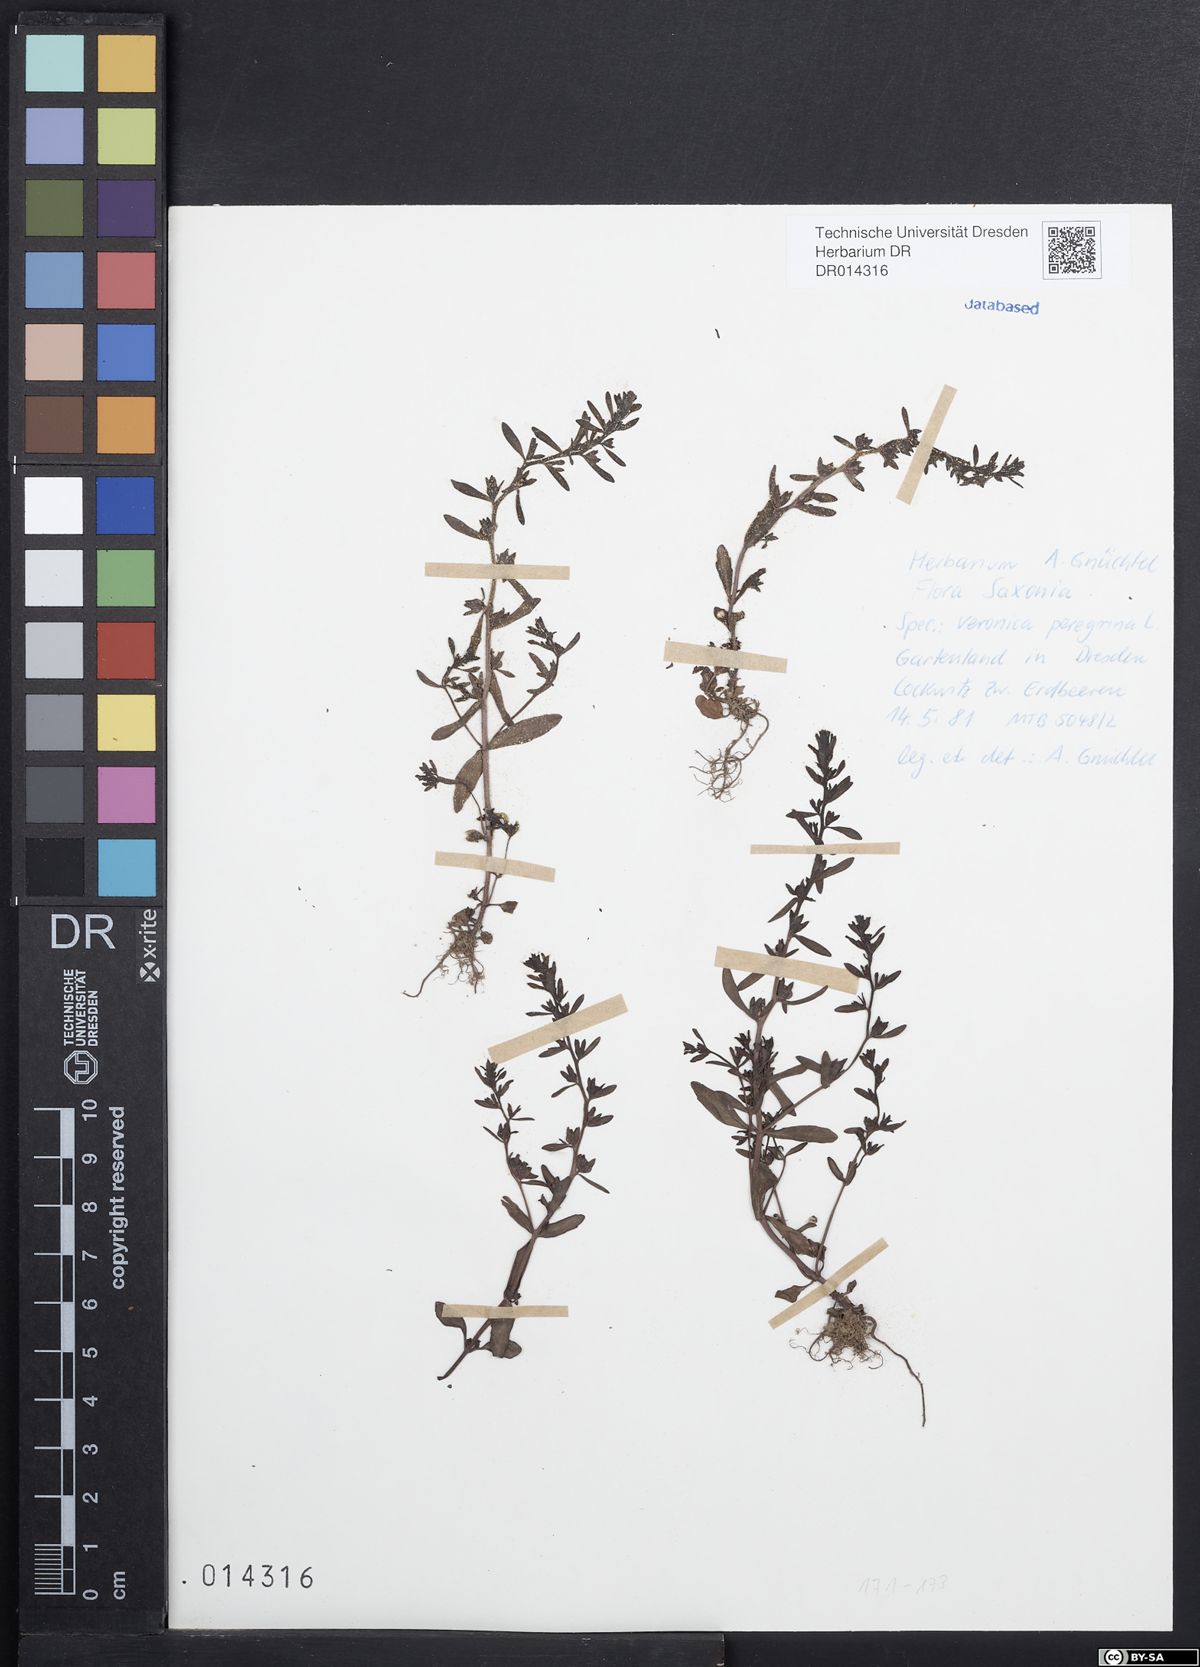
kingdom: Plantae
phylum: Tracheophyta
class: Magnoliopsida
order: Lamiales
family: Plantaginaceae
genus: Veronica
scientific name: Veronica peregrina
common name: Neckweed
